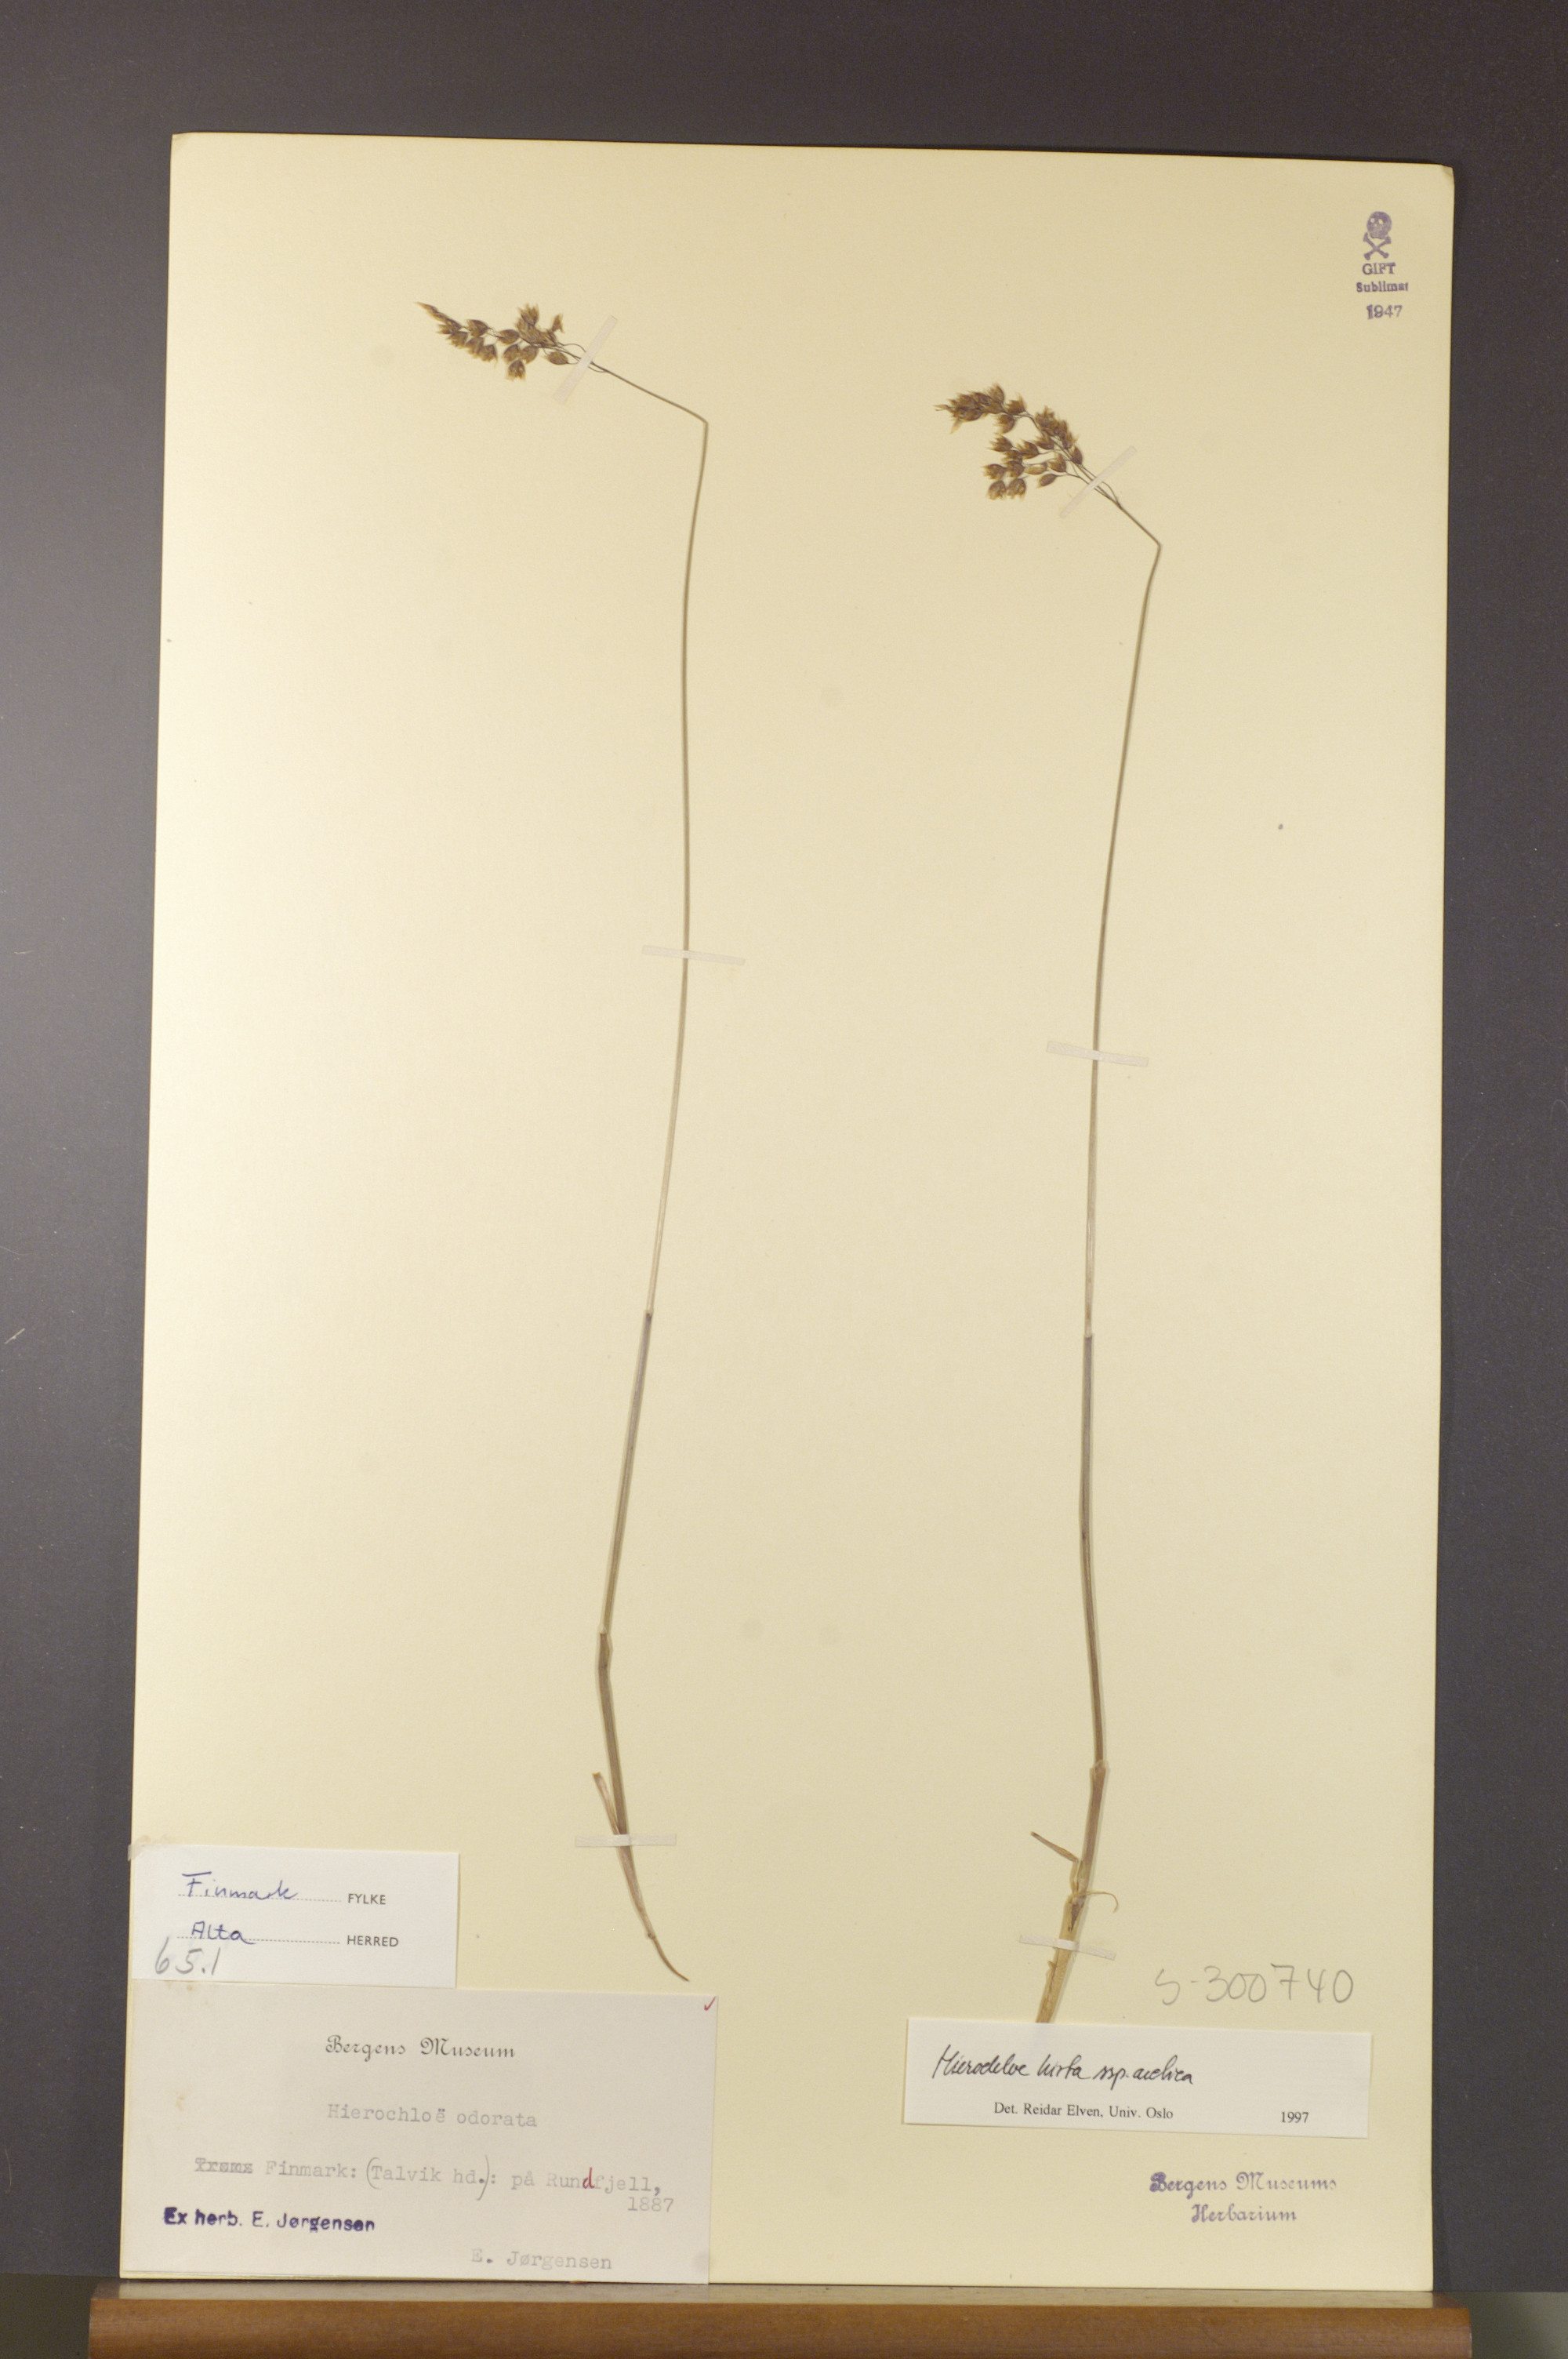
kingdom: Plantae
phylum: Tracheophyta
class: Liliopsida
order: Poales
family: Poaceae
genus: Anthoxanthum
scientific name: Anthoxanthum nitens
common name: Holy grass
